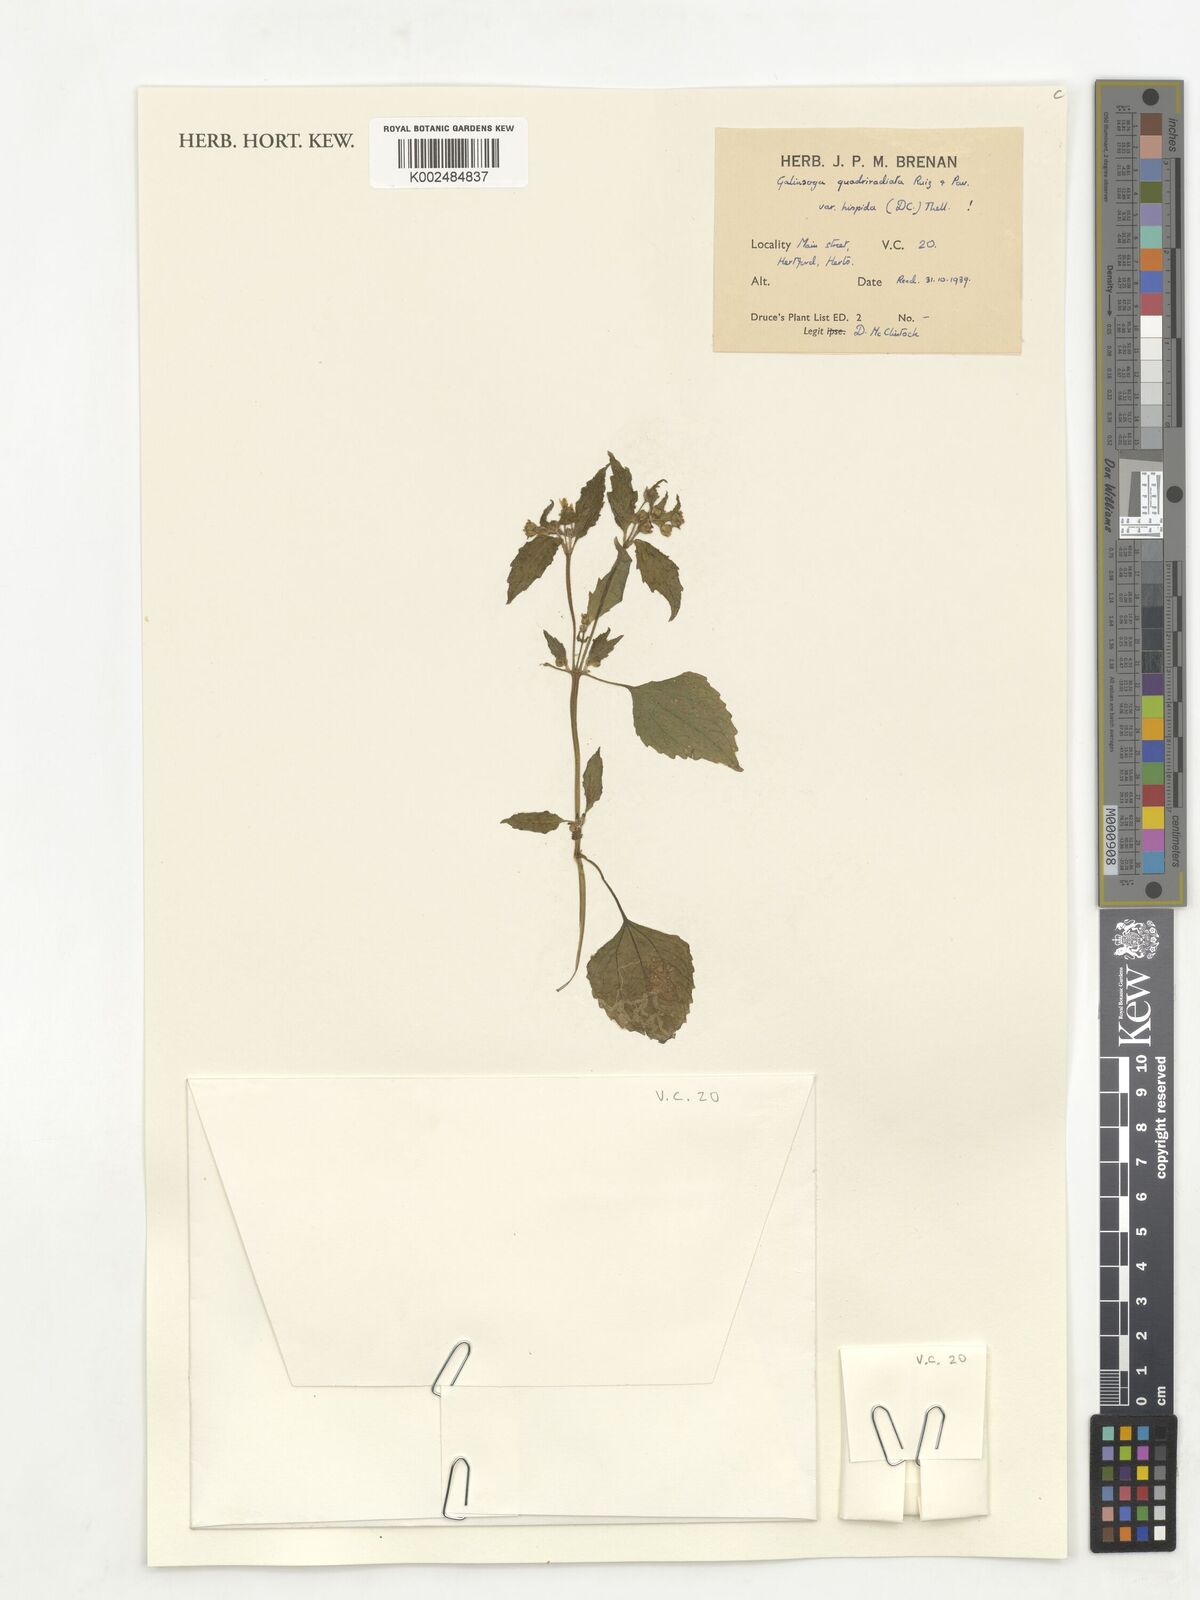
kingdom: Plantae
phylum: Tracheophyta
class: Magnoliopsida
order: Asterales
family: Asteraceae
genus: Galinsoga
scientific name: Galinsoga quadriradiata
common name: Shaggy soldier
